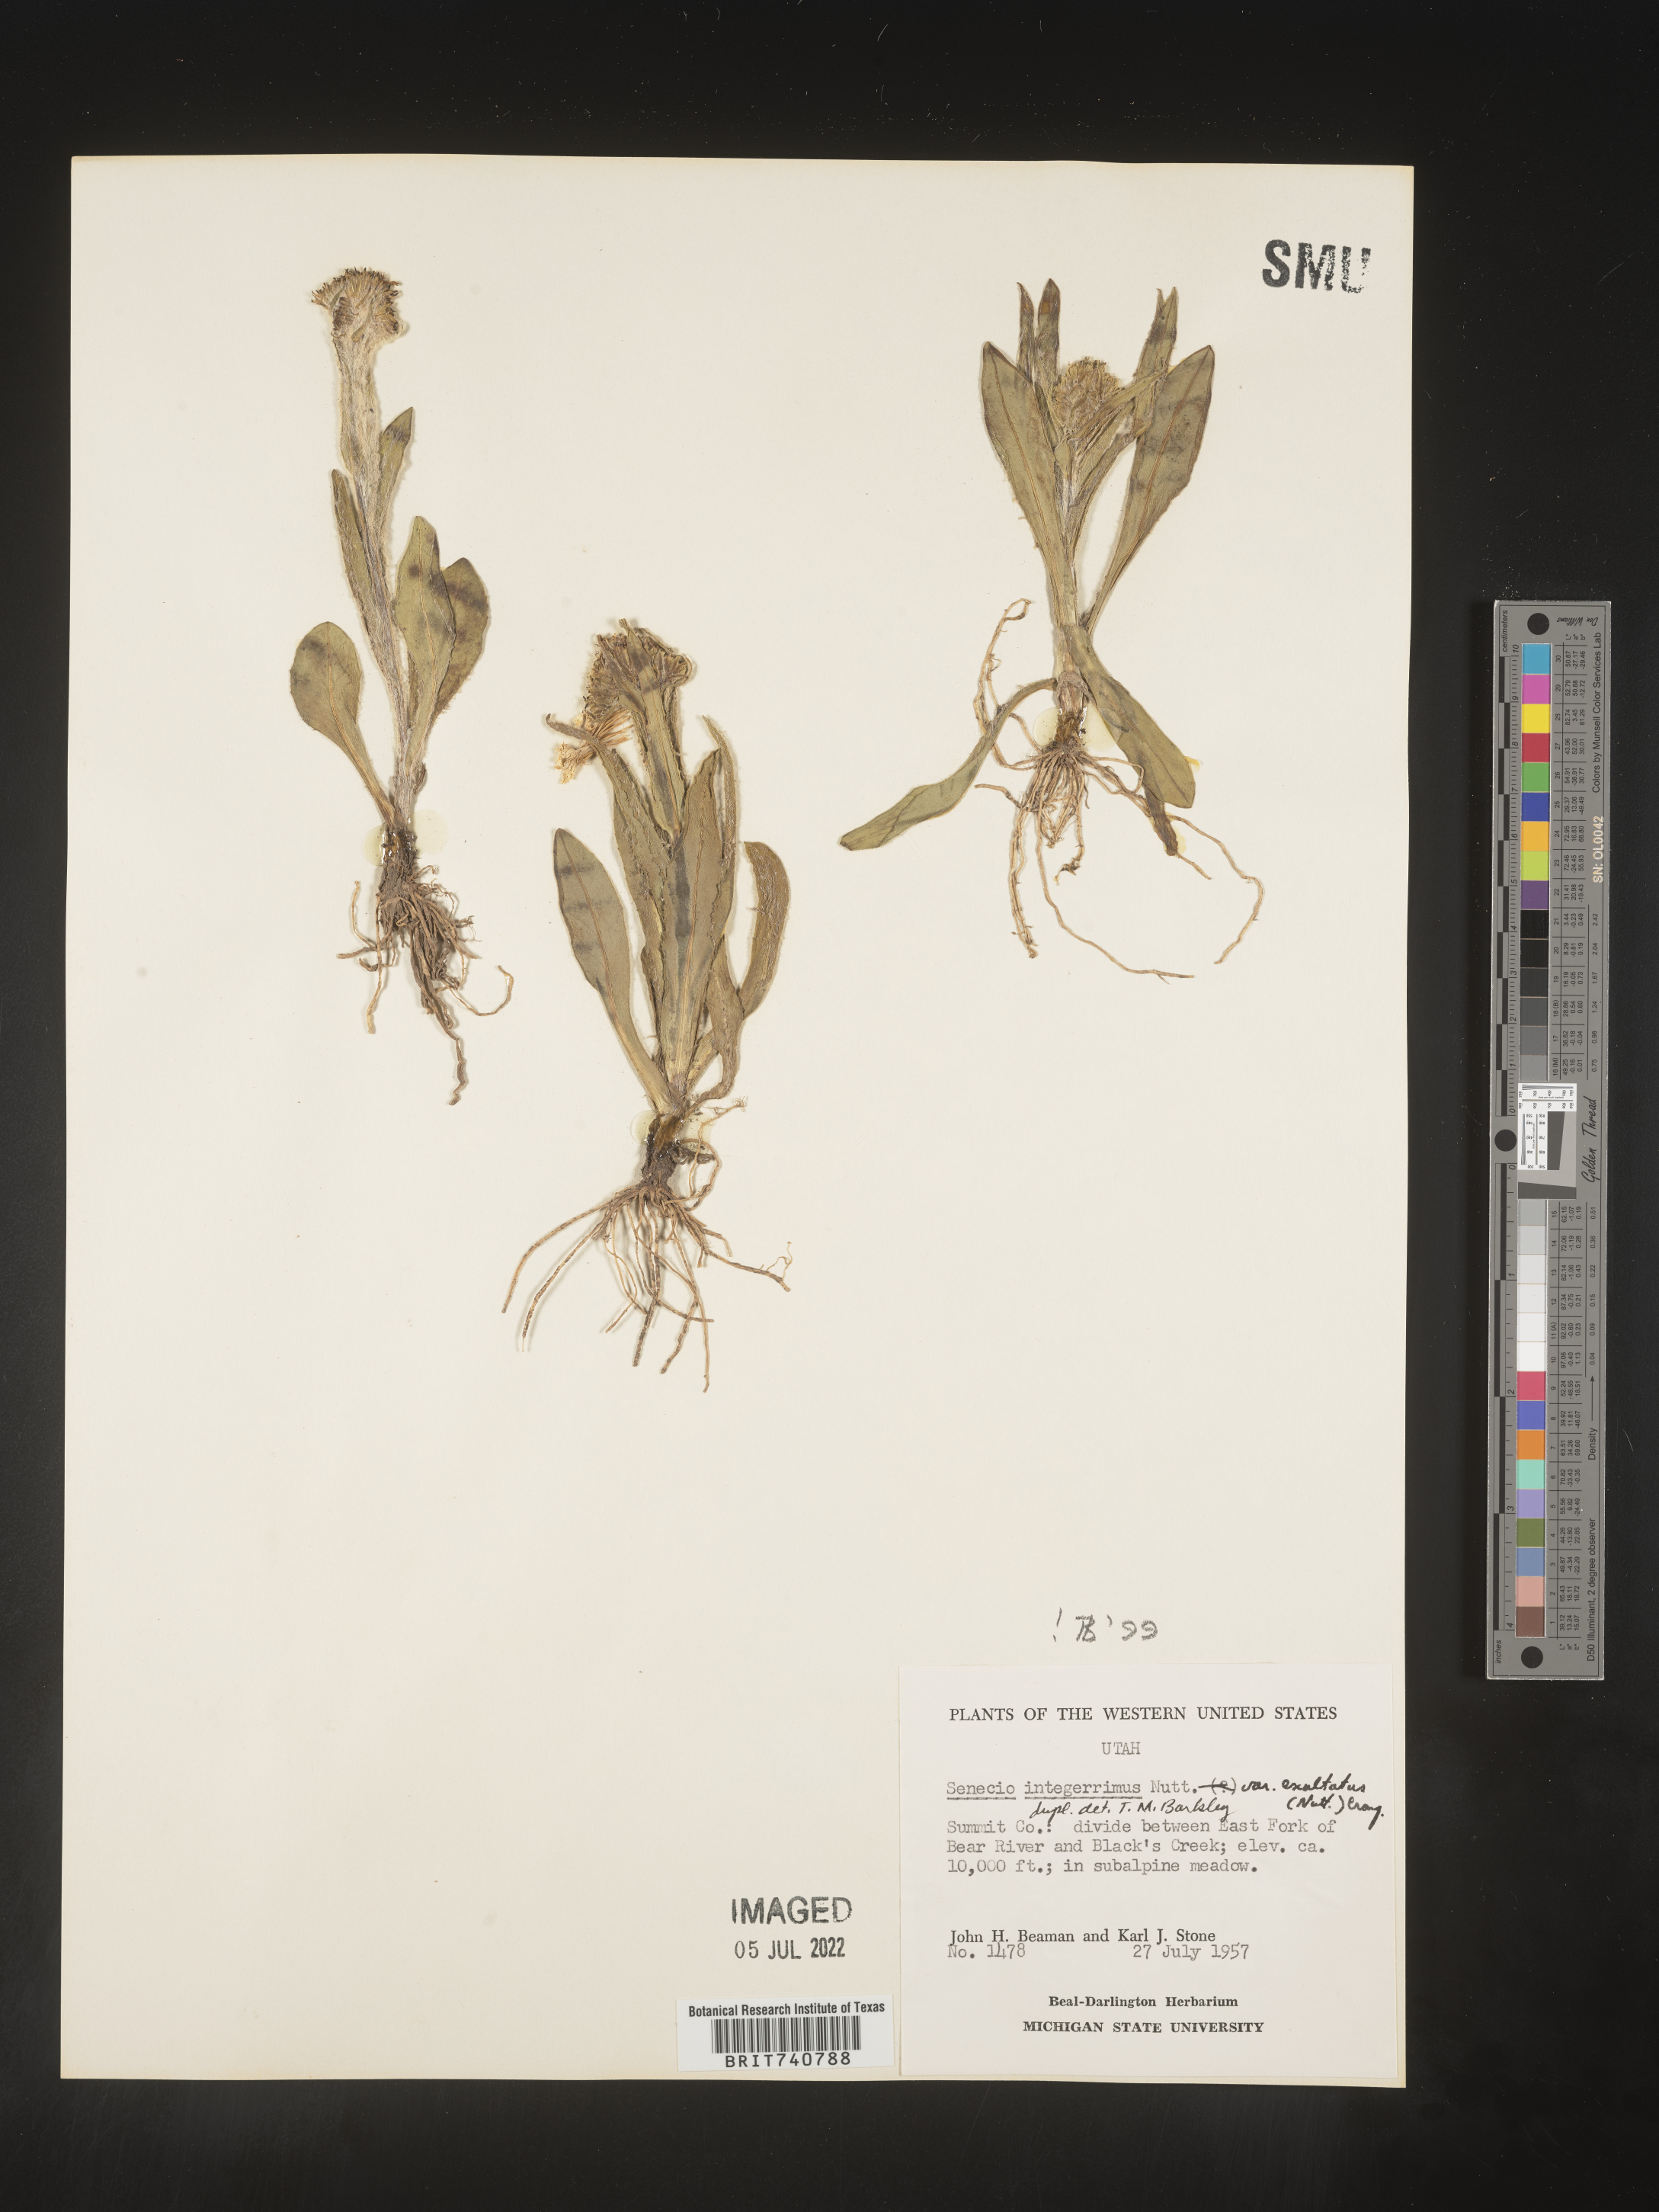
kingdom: Plantae
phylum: Tracheophyta
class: Magnoliopsida
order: Asterales
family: Asteraceae
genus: Senecio
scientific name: Senecio integerrimus
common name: Gaugeplant
